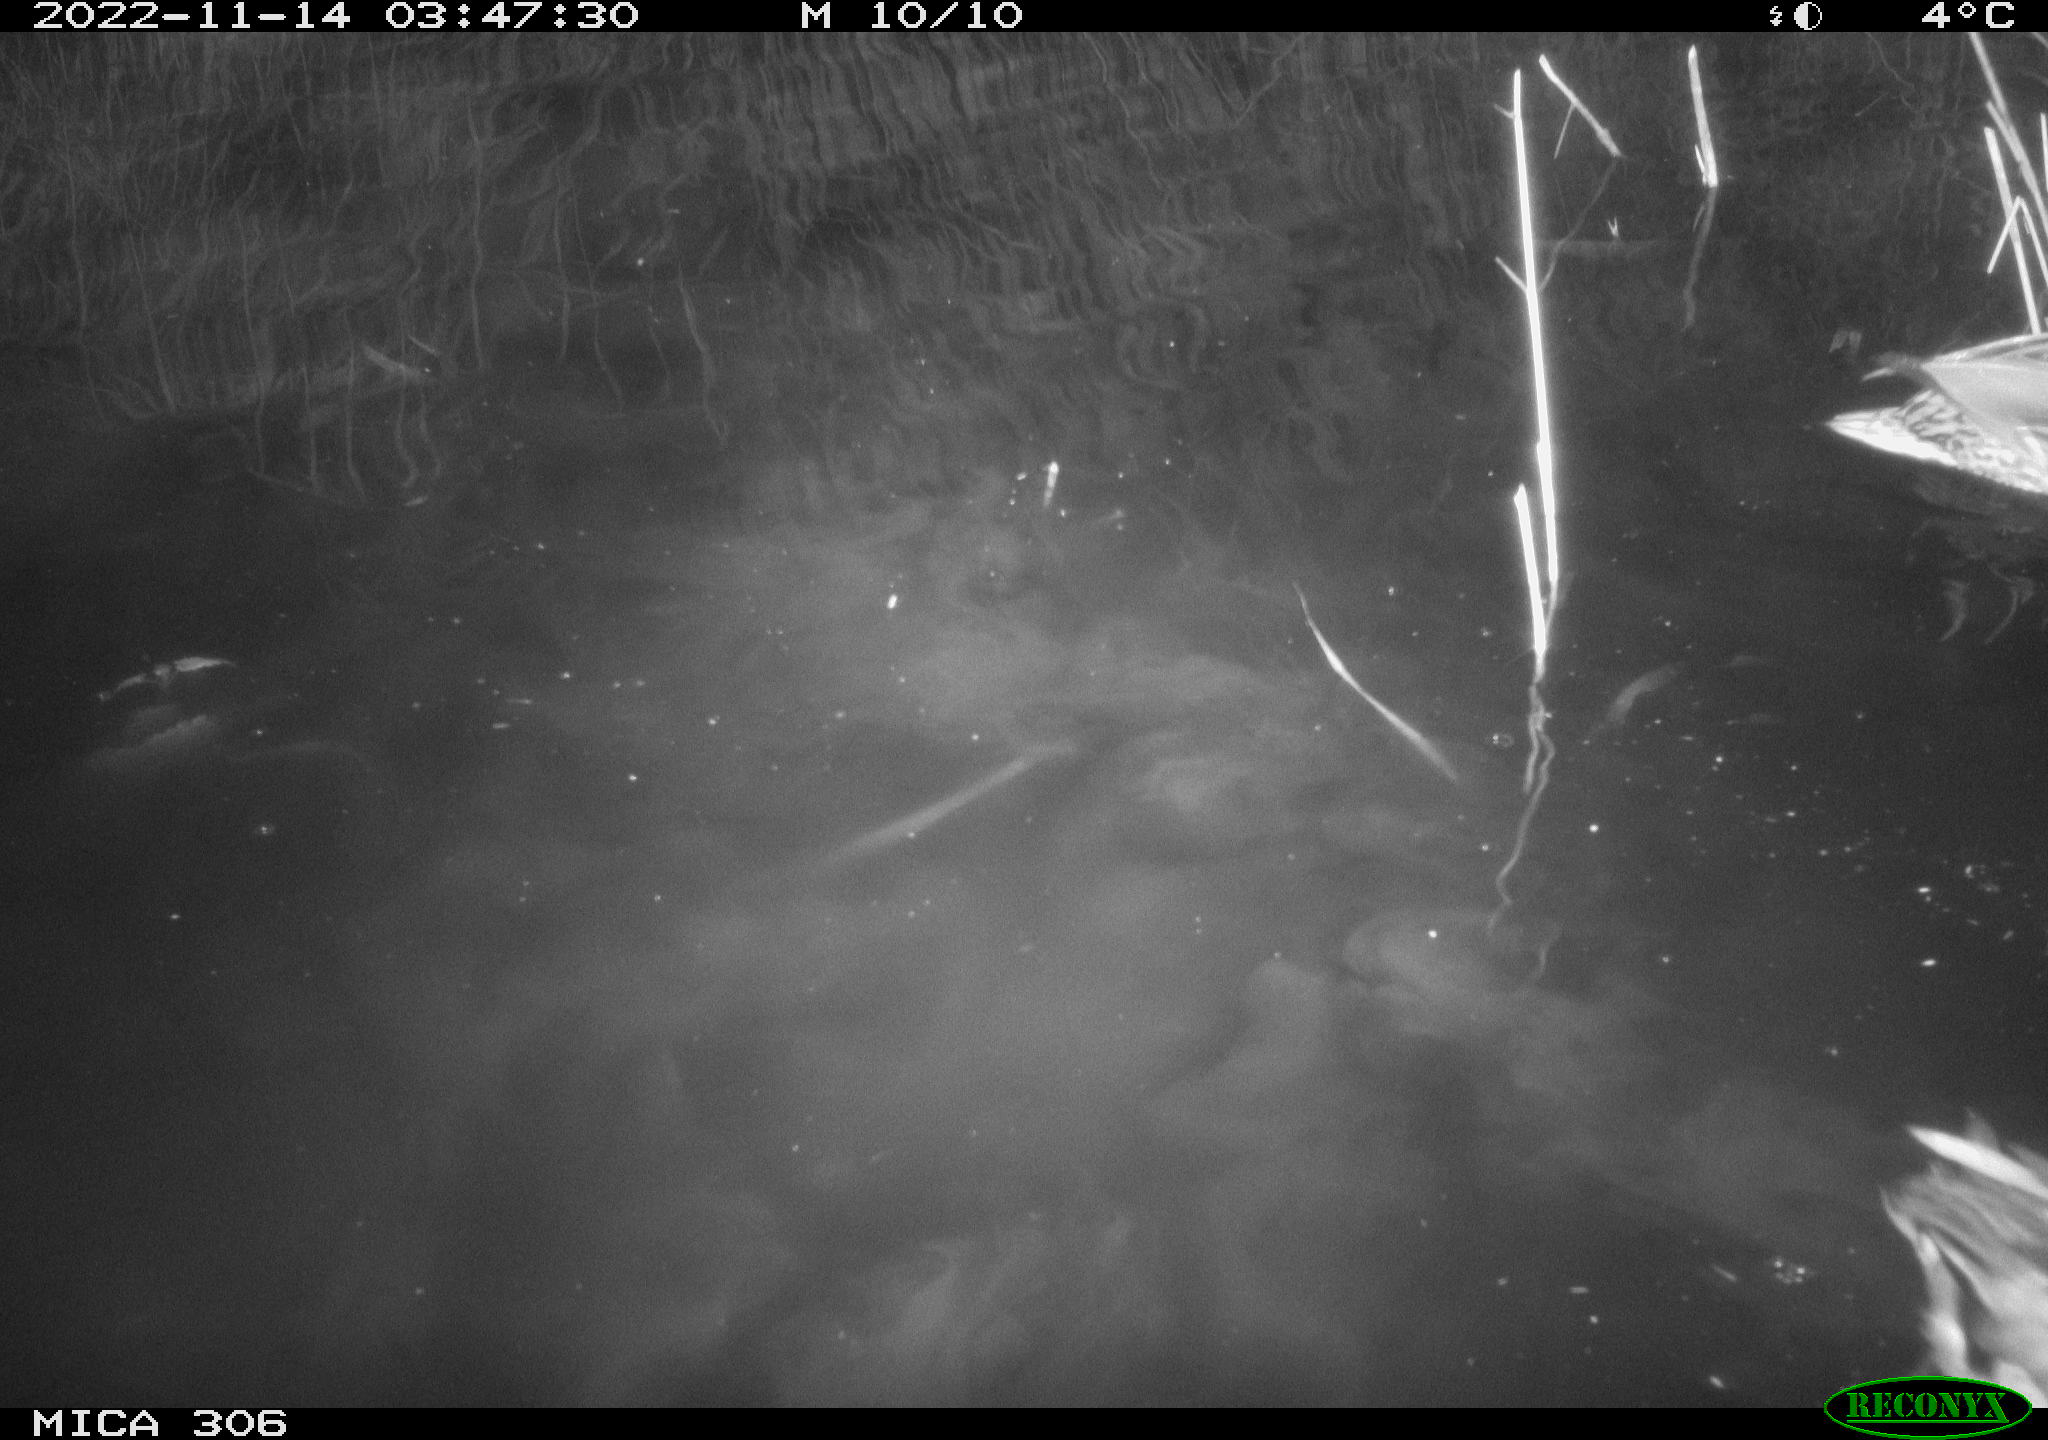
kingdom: Animalia
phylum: Chordata
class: Aves
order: Anseriformes
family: Anatidae
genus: Anas
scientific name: Anas
